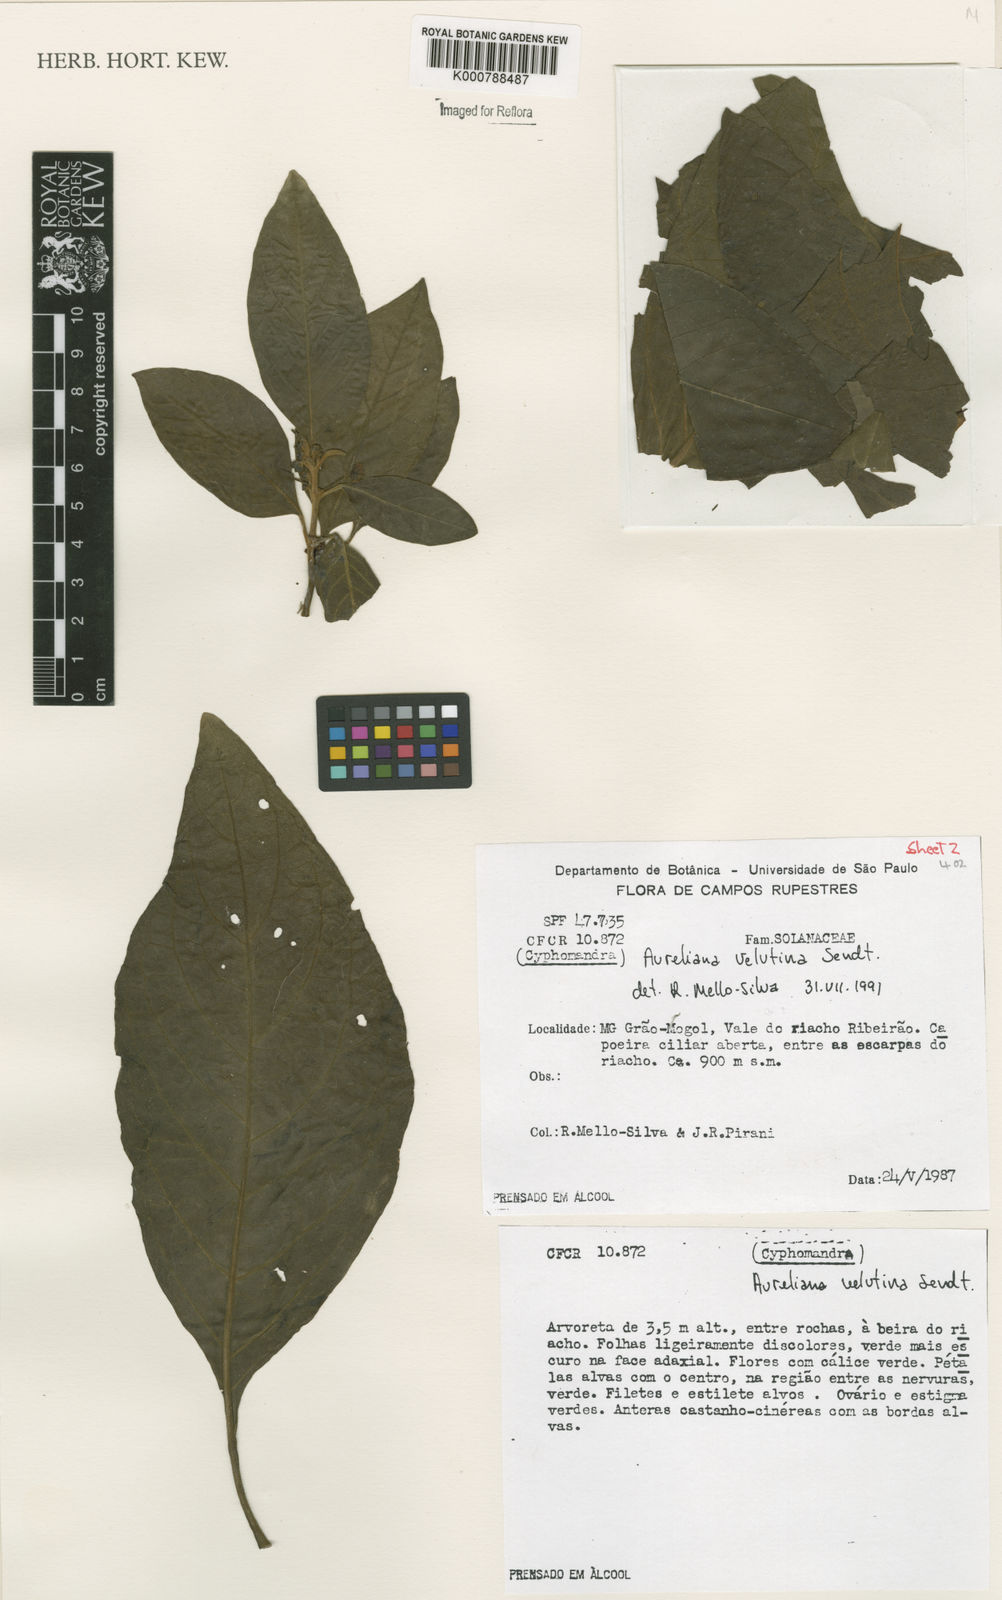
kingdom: Plantae
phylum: Tracheophyta
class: Magnoliopsida
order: Solanales
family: Solanaceae
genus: Athenaea
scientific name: Athenaea velutina
